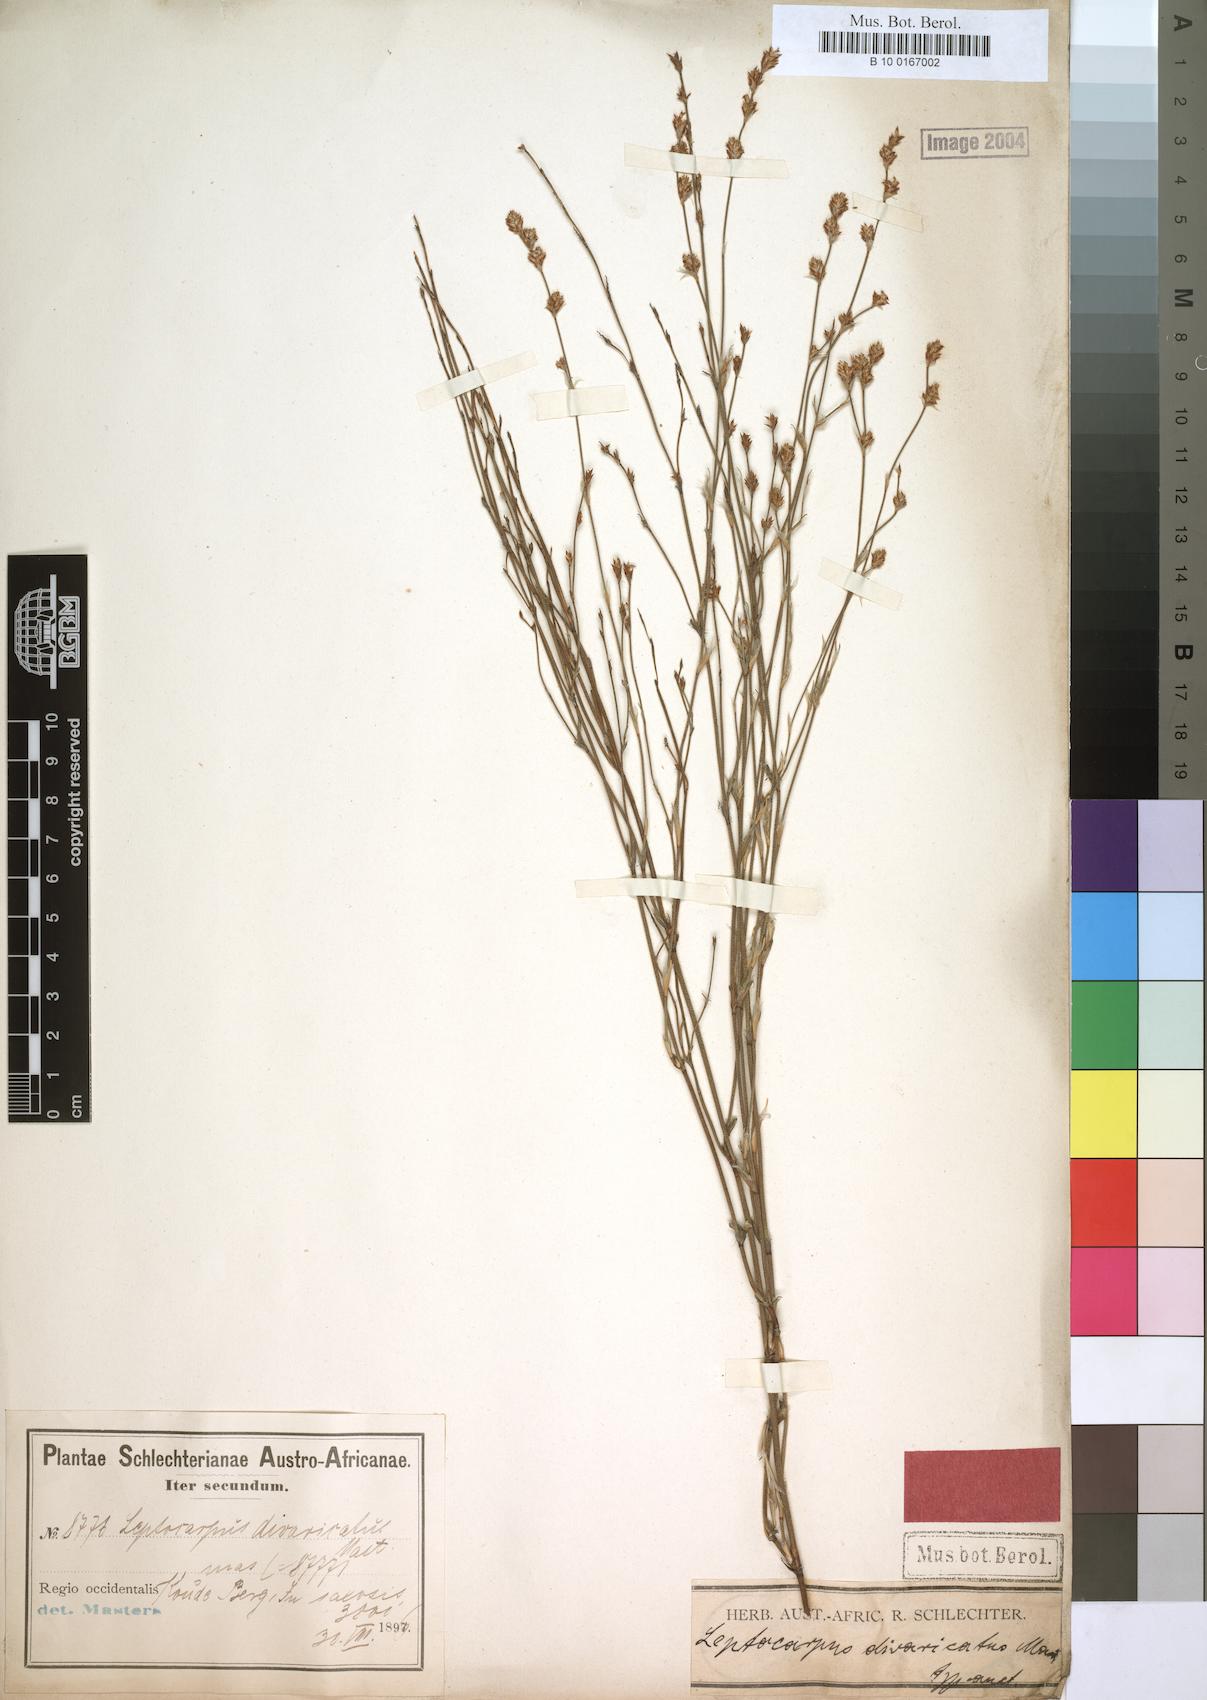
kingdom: Plantae
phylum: Tracheophyta
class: Liliopsida
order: Poales
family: Restionaceae
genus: Restio
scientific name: Restio tuberculatus
